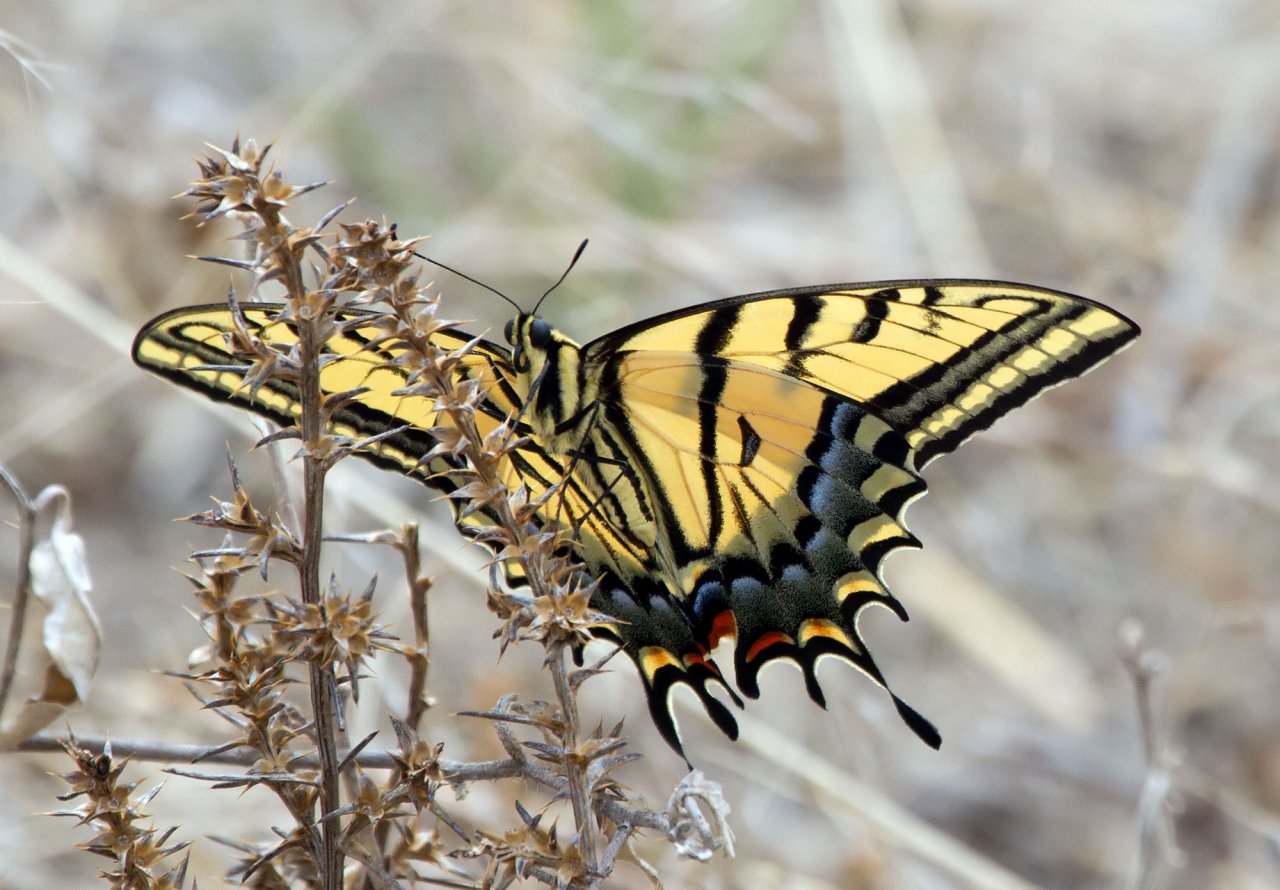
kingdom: Animalia
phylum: Arthropoda
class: Insecta
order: Lepidoptera
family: Papilionidae
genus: Papilio
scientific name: Papilio multicaudata
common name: Two-tailed Swallowtail
